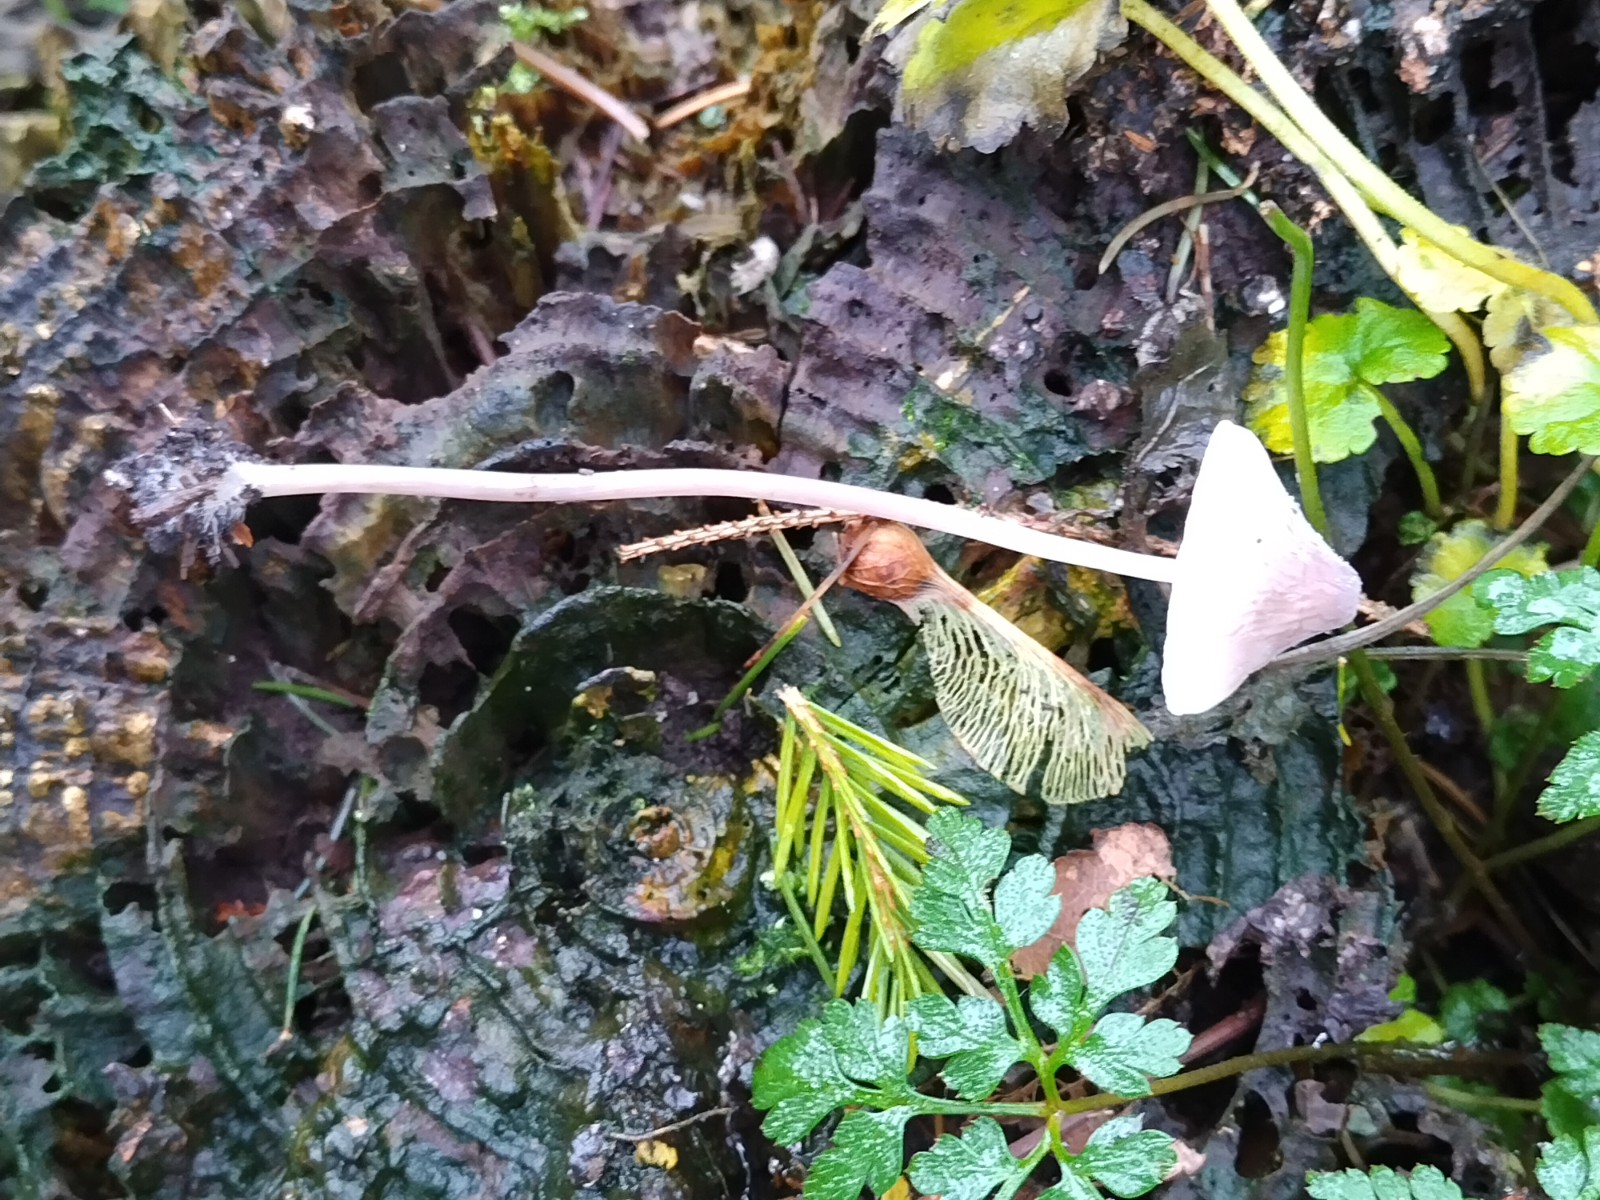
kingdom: Fungi
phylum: Basidiomycota
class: Agaricomycetes
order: Agaricales
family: Mycenaceae
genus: Mycena
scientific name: Mycena galericulata
